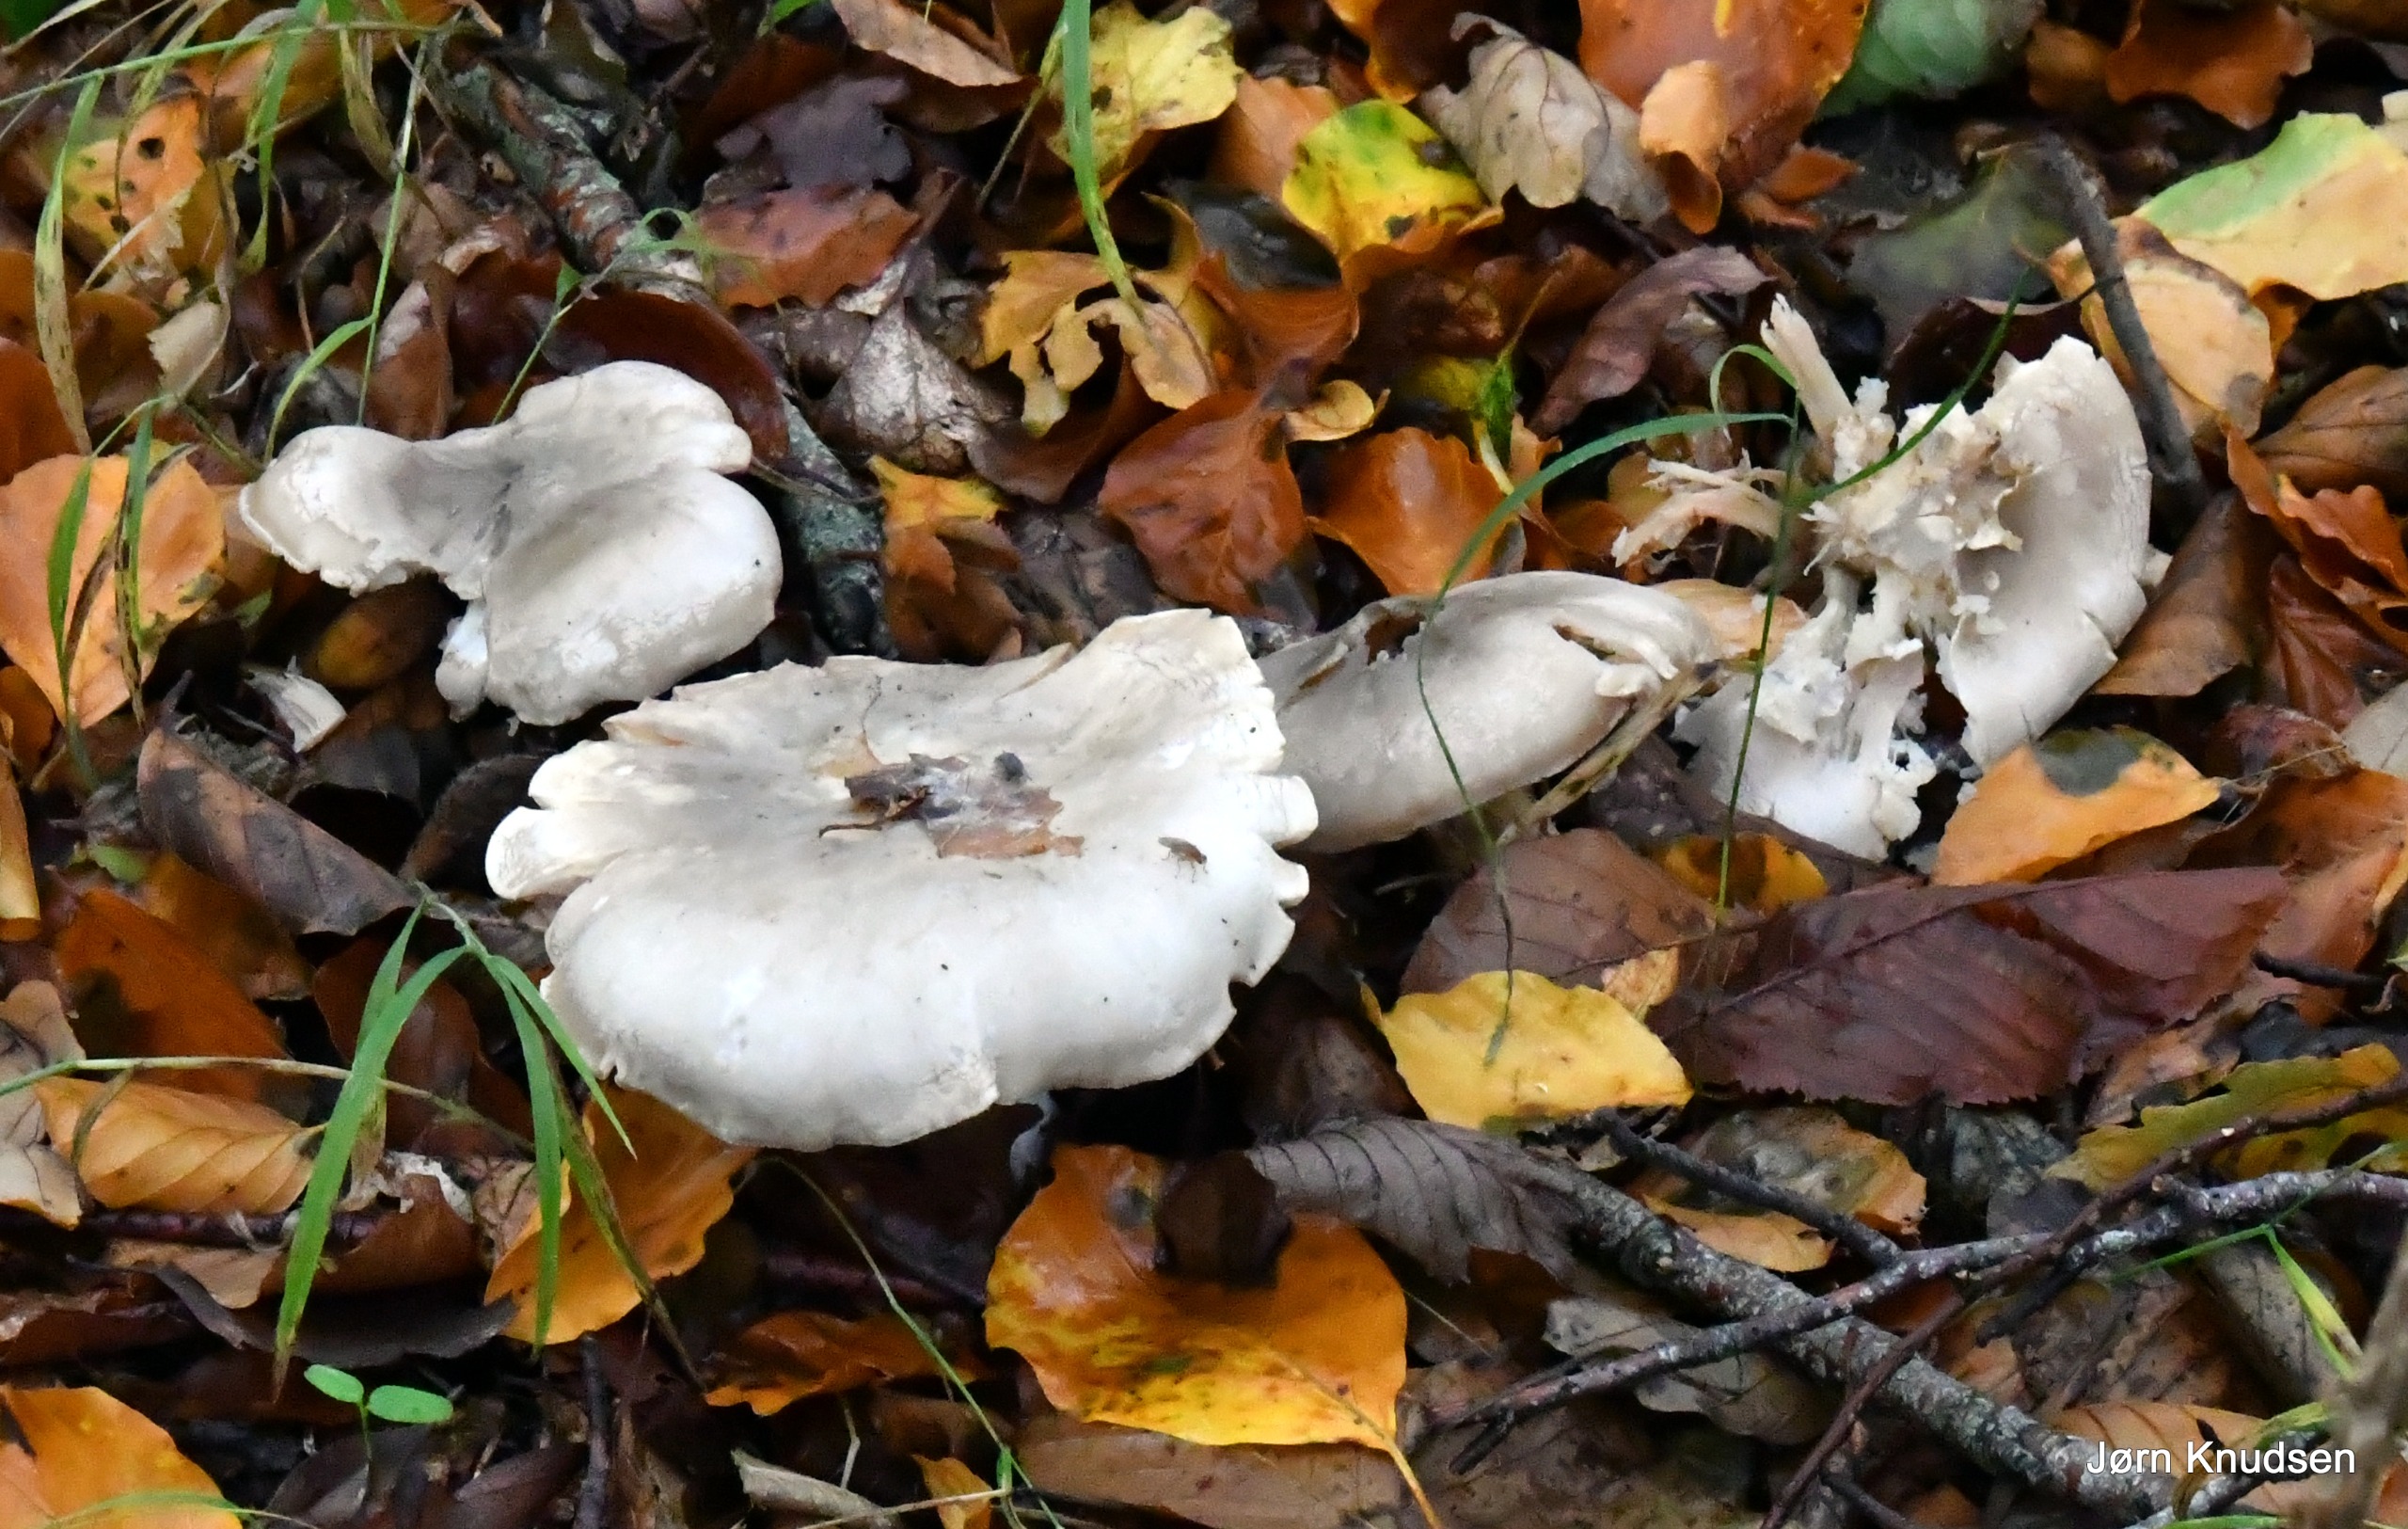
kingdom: Fungi
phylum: Basidiomycota
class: Agaricomycetes
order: Agaricales
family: Tricholomataceae
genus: Clitocybe
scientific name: Clitocybe nebularis
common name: Tåge-tragthat
